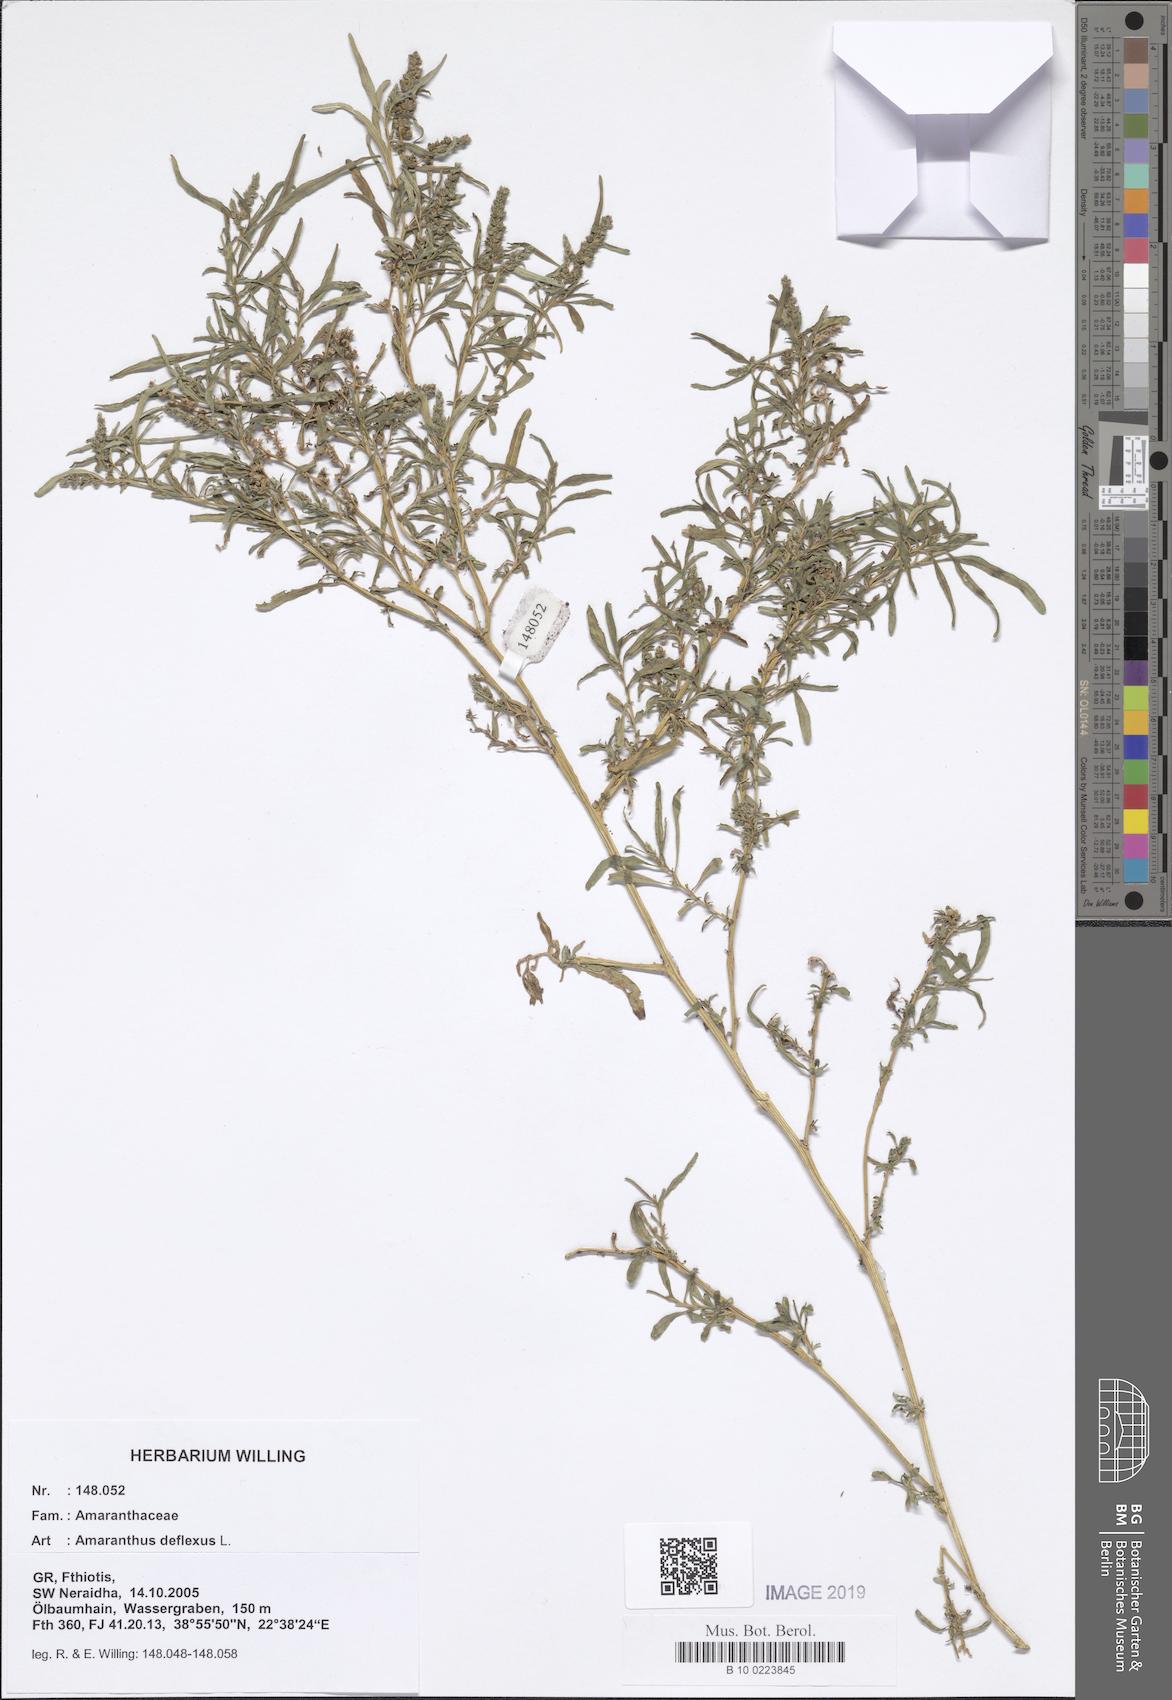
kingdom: Plantae
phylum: Tracheophyta
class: Magnoliopsida
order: Caryophyllales
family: Amaranthaceae
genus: Amaranthus
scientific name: Amaranthus deflexus
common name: Perennial pigweed
